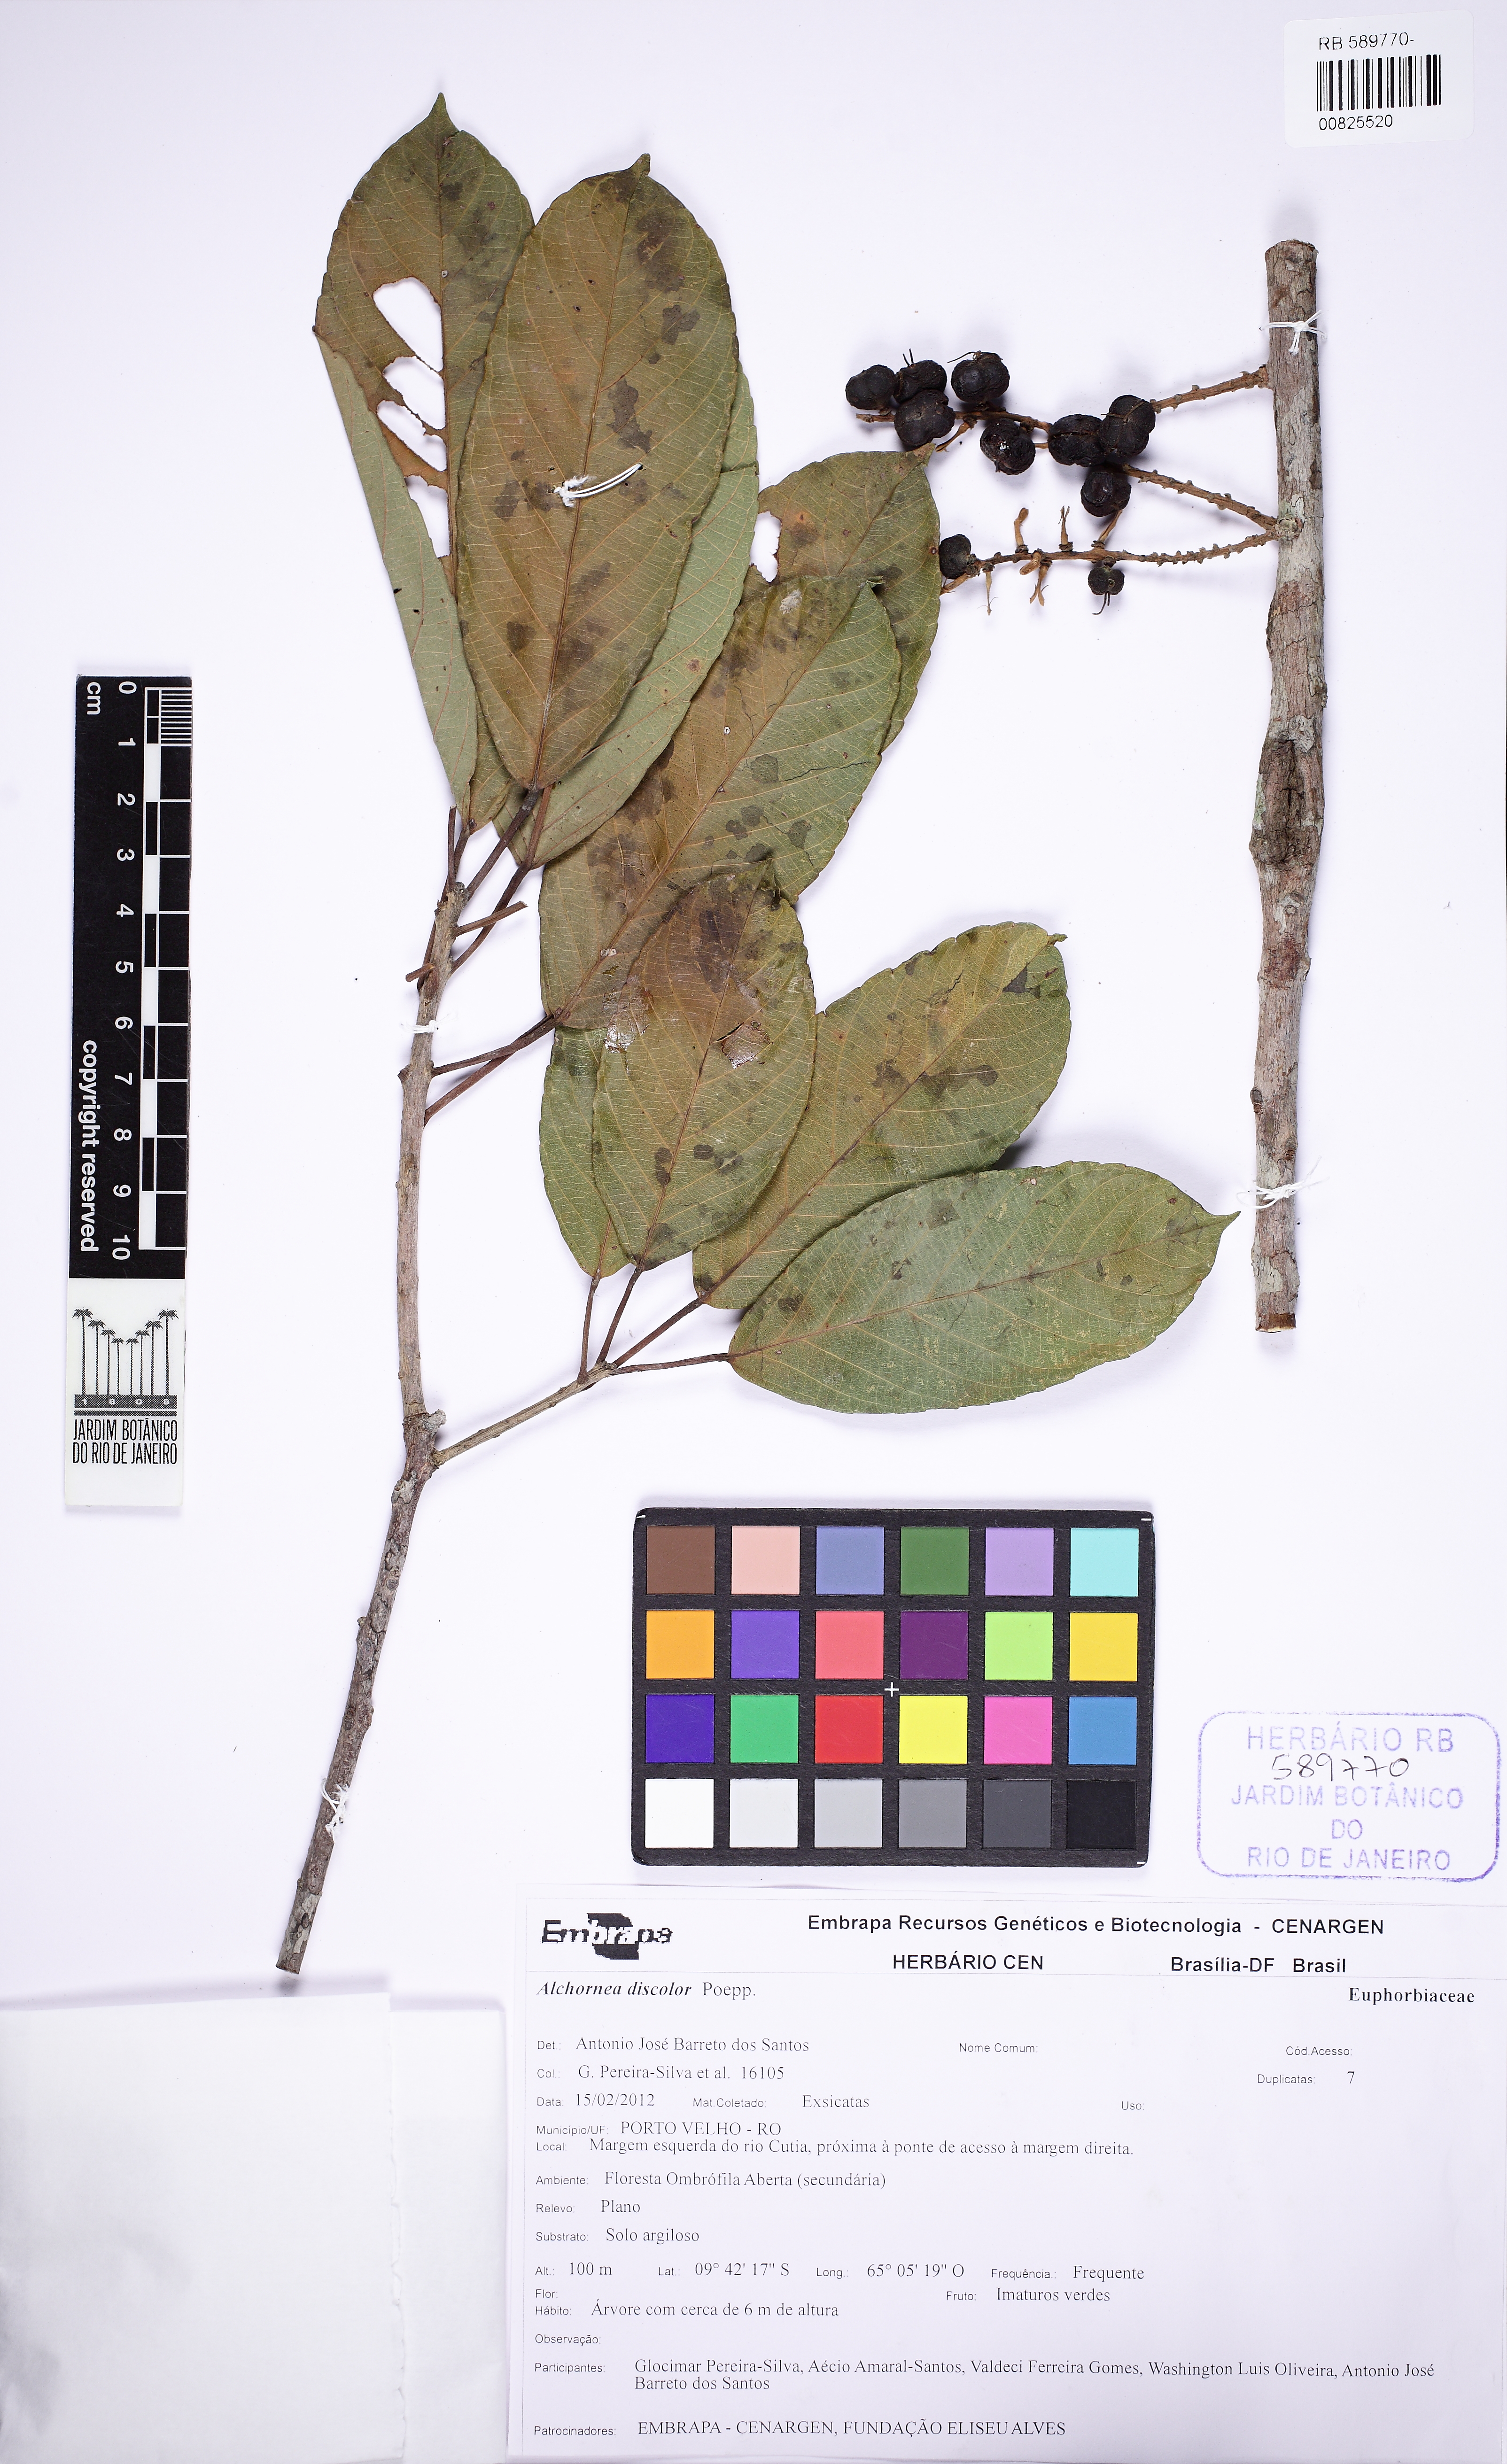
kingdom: Plantae
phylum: Tracheophyta
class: Magnoliopsida
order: Malpighiales
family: Euphorbiaceae
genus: Alchornea
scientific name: Alchornea discolor
